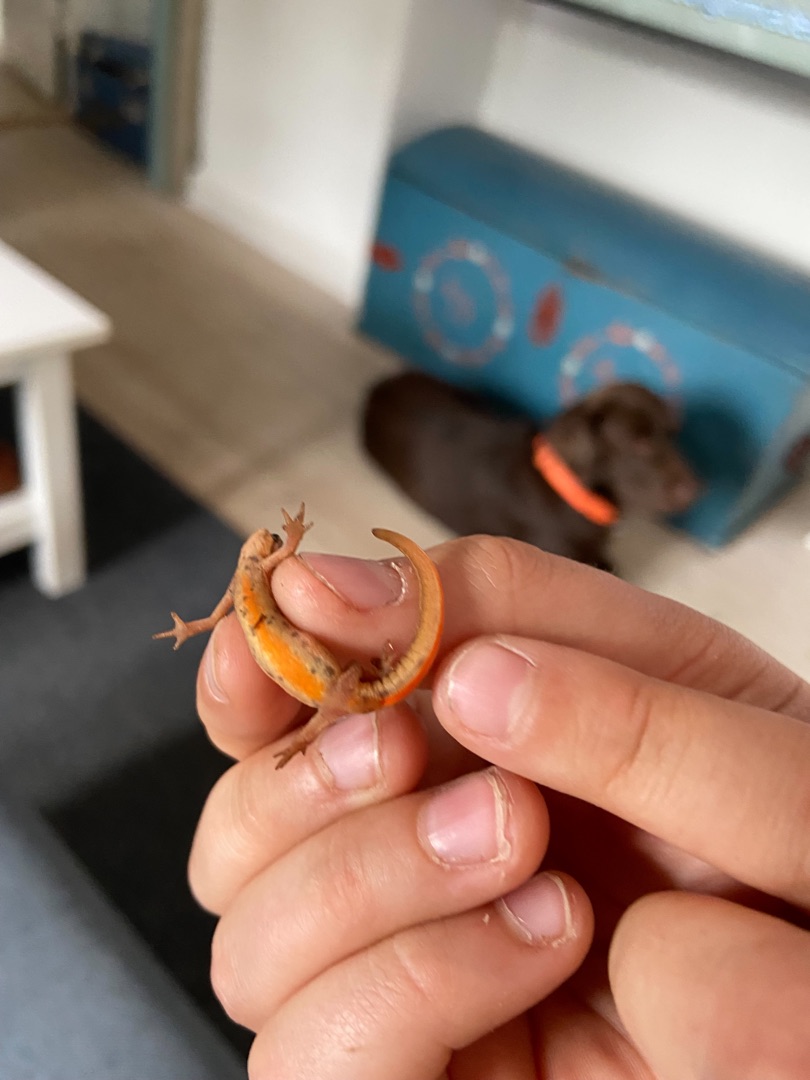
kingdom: Animalia
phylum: Chordata
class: Amphibia
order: Caudata
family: Salamandridae
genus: Lissotriton
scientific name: Lissotriton vulgaris
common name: Lille vandsalamander
